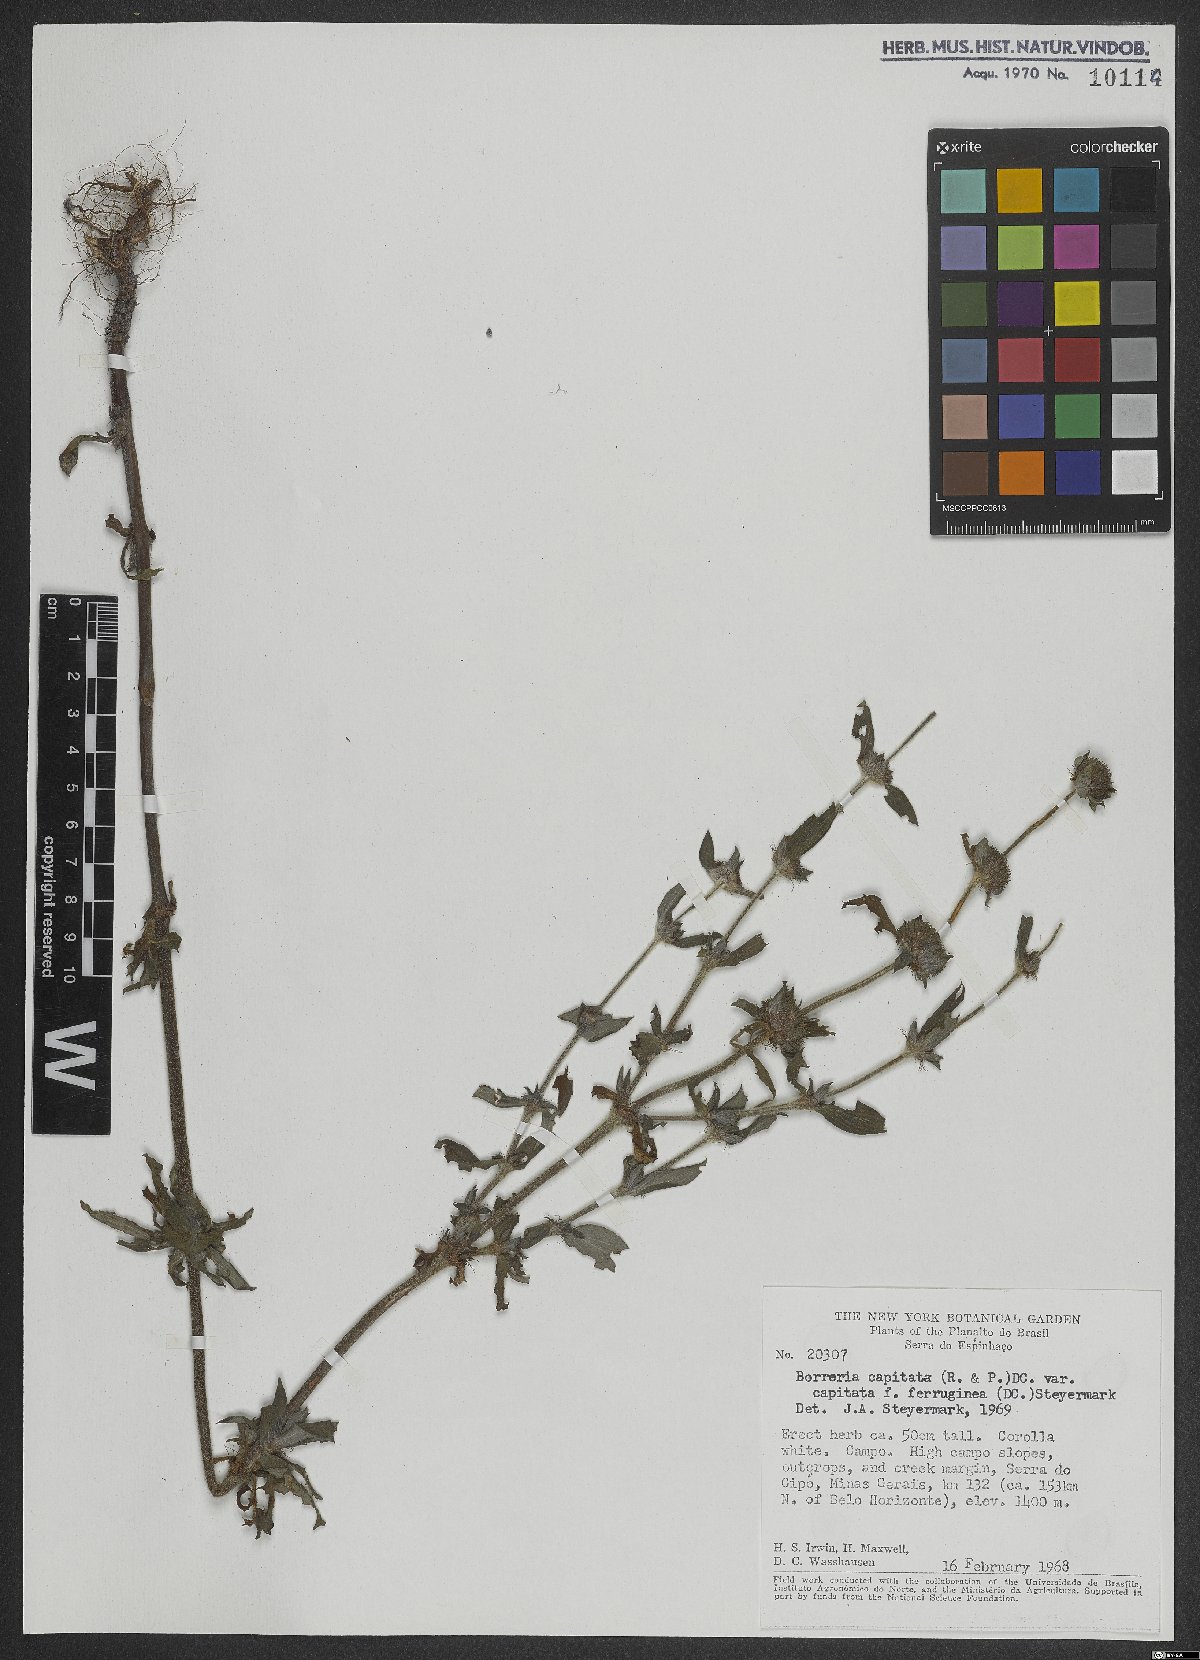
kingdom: Plantae
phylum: Tracheophyta
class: Magnoliopsida
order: Gentianales
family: Rubiaceae
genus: Spermacoce
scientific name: Spermacoce capitata
